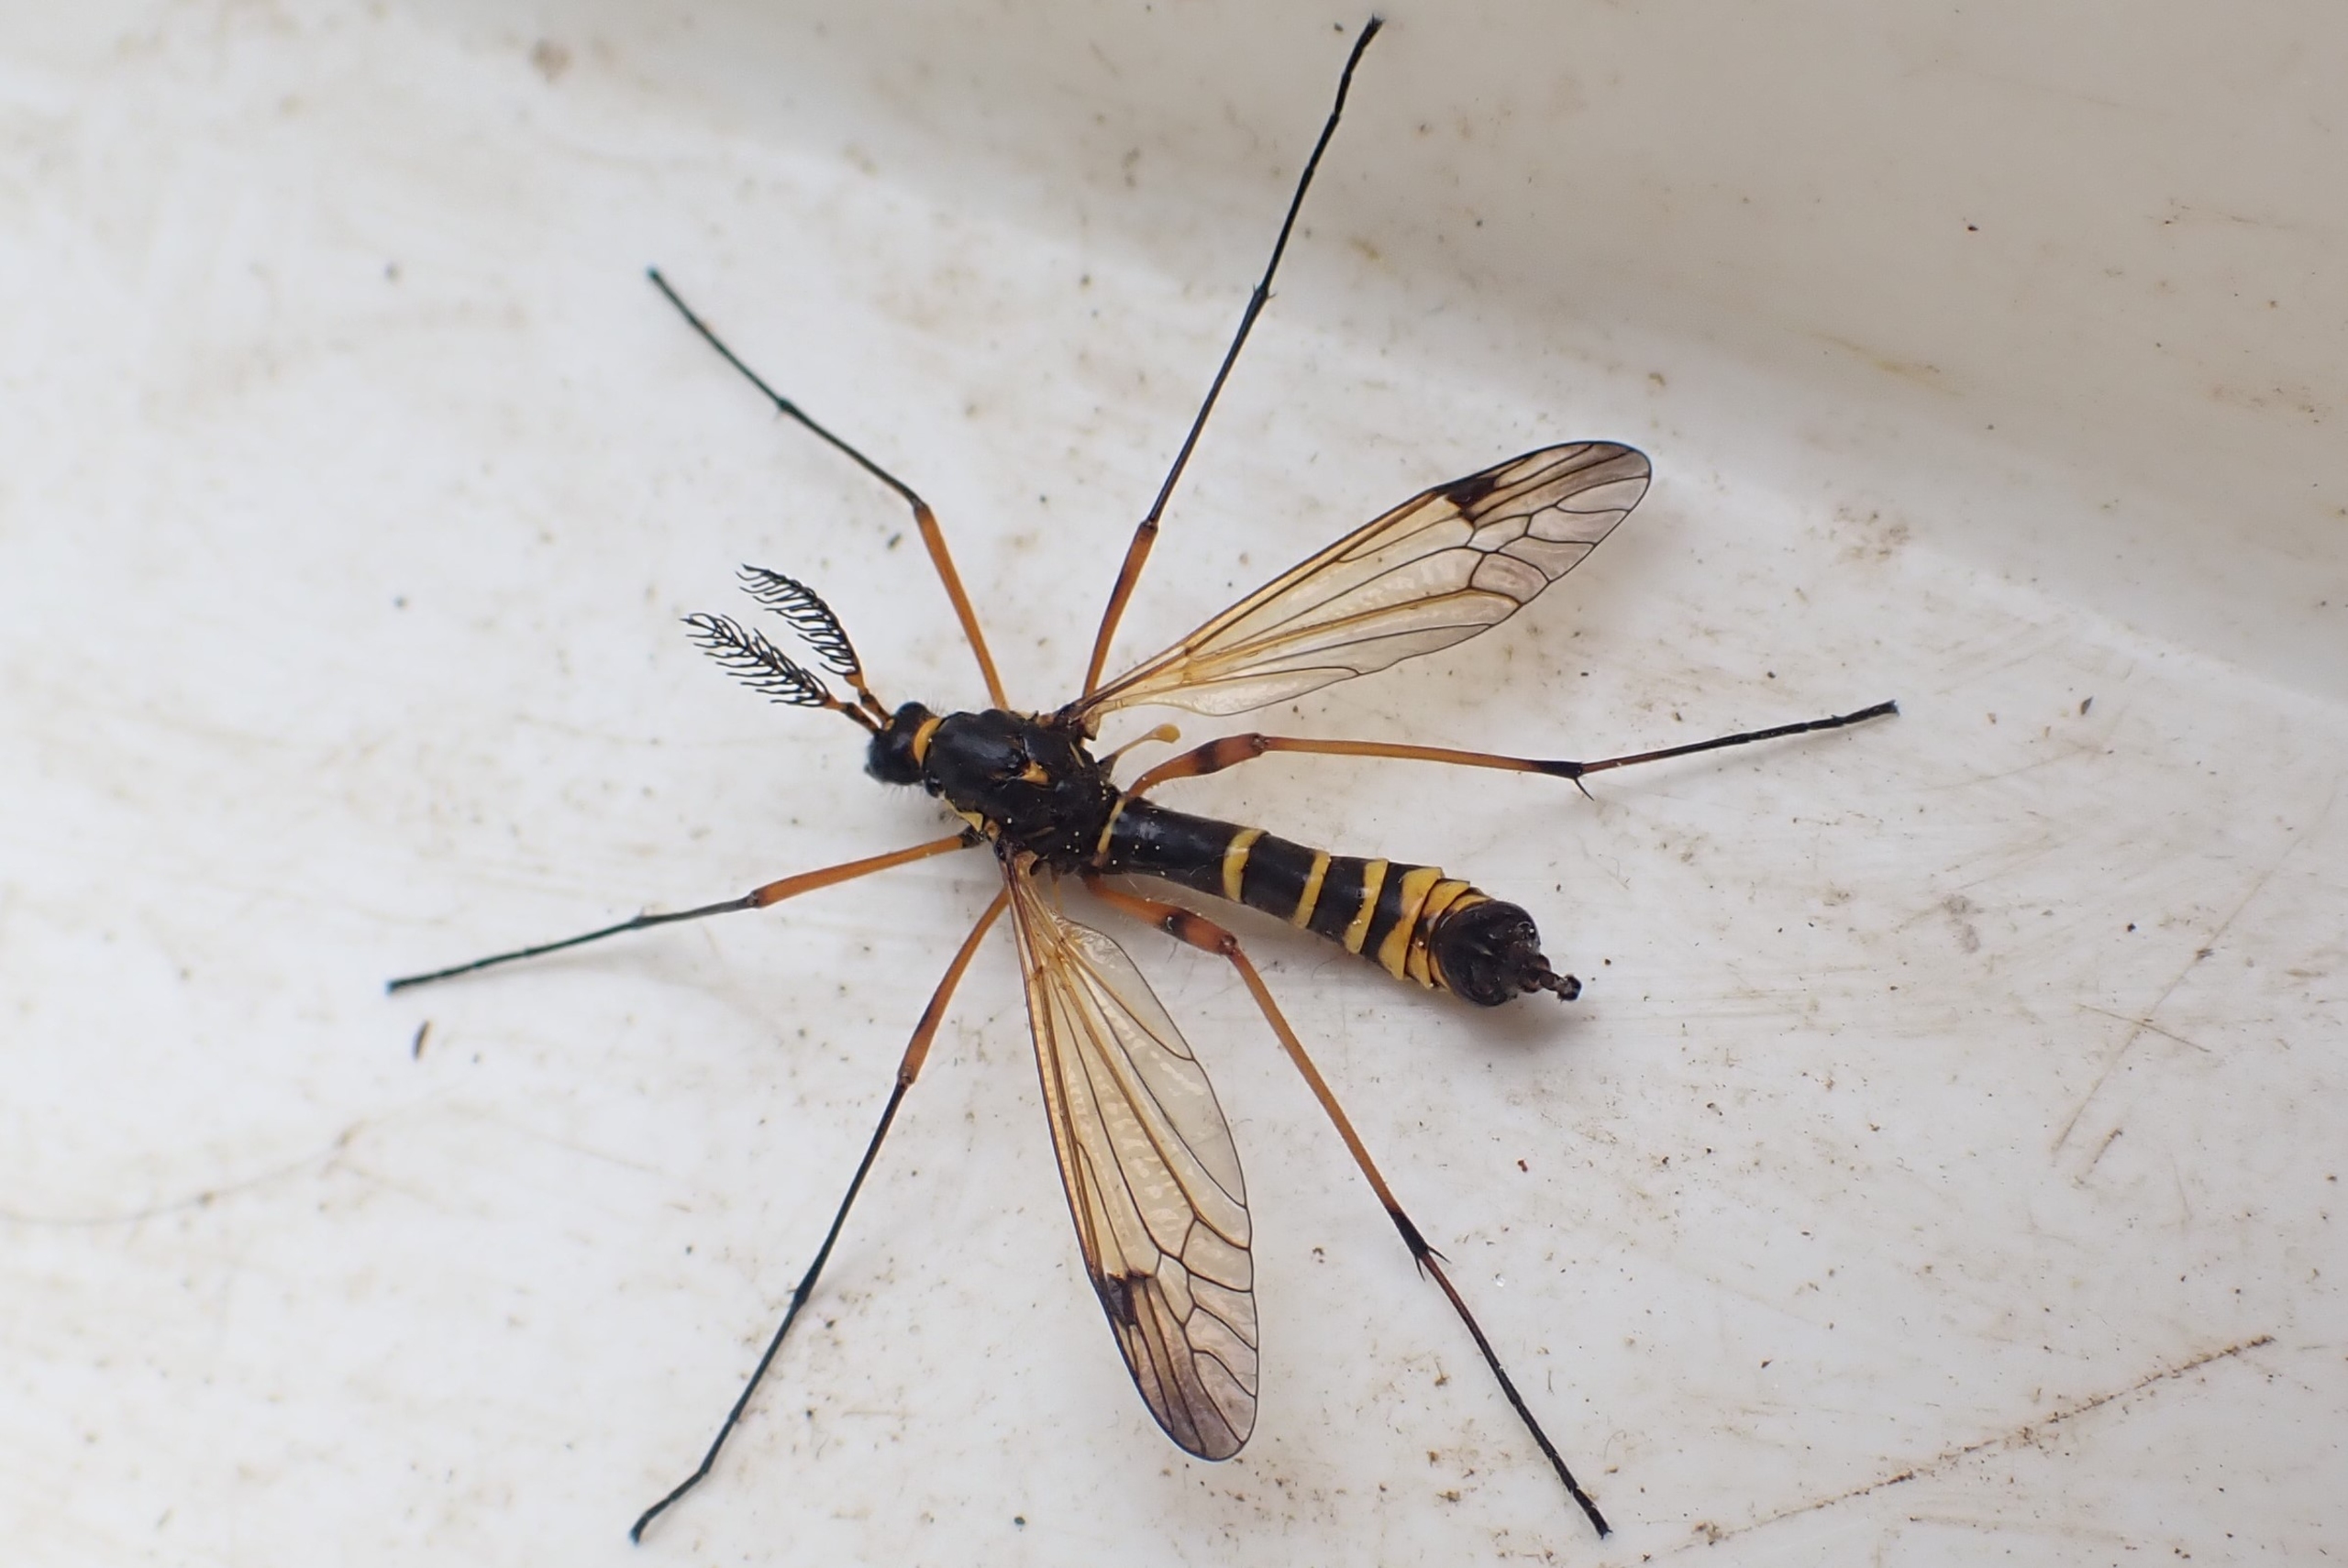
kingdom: Animalia
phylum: Arthropoda
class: Insecta
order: Diptera
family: Tipulidae
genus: Ctenophora
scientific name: Ctenophora flaveolata
